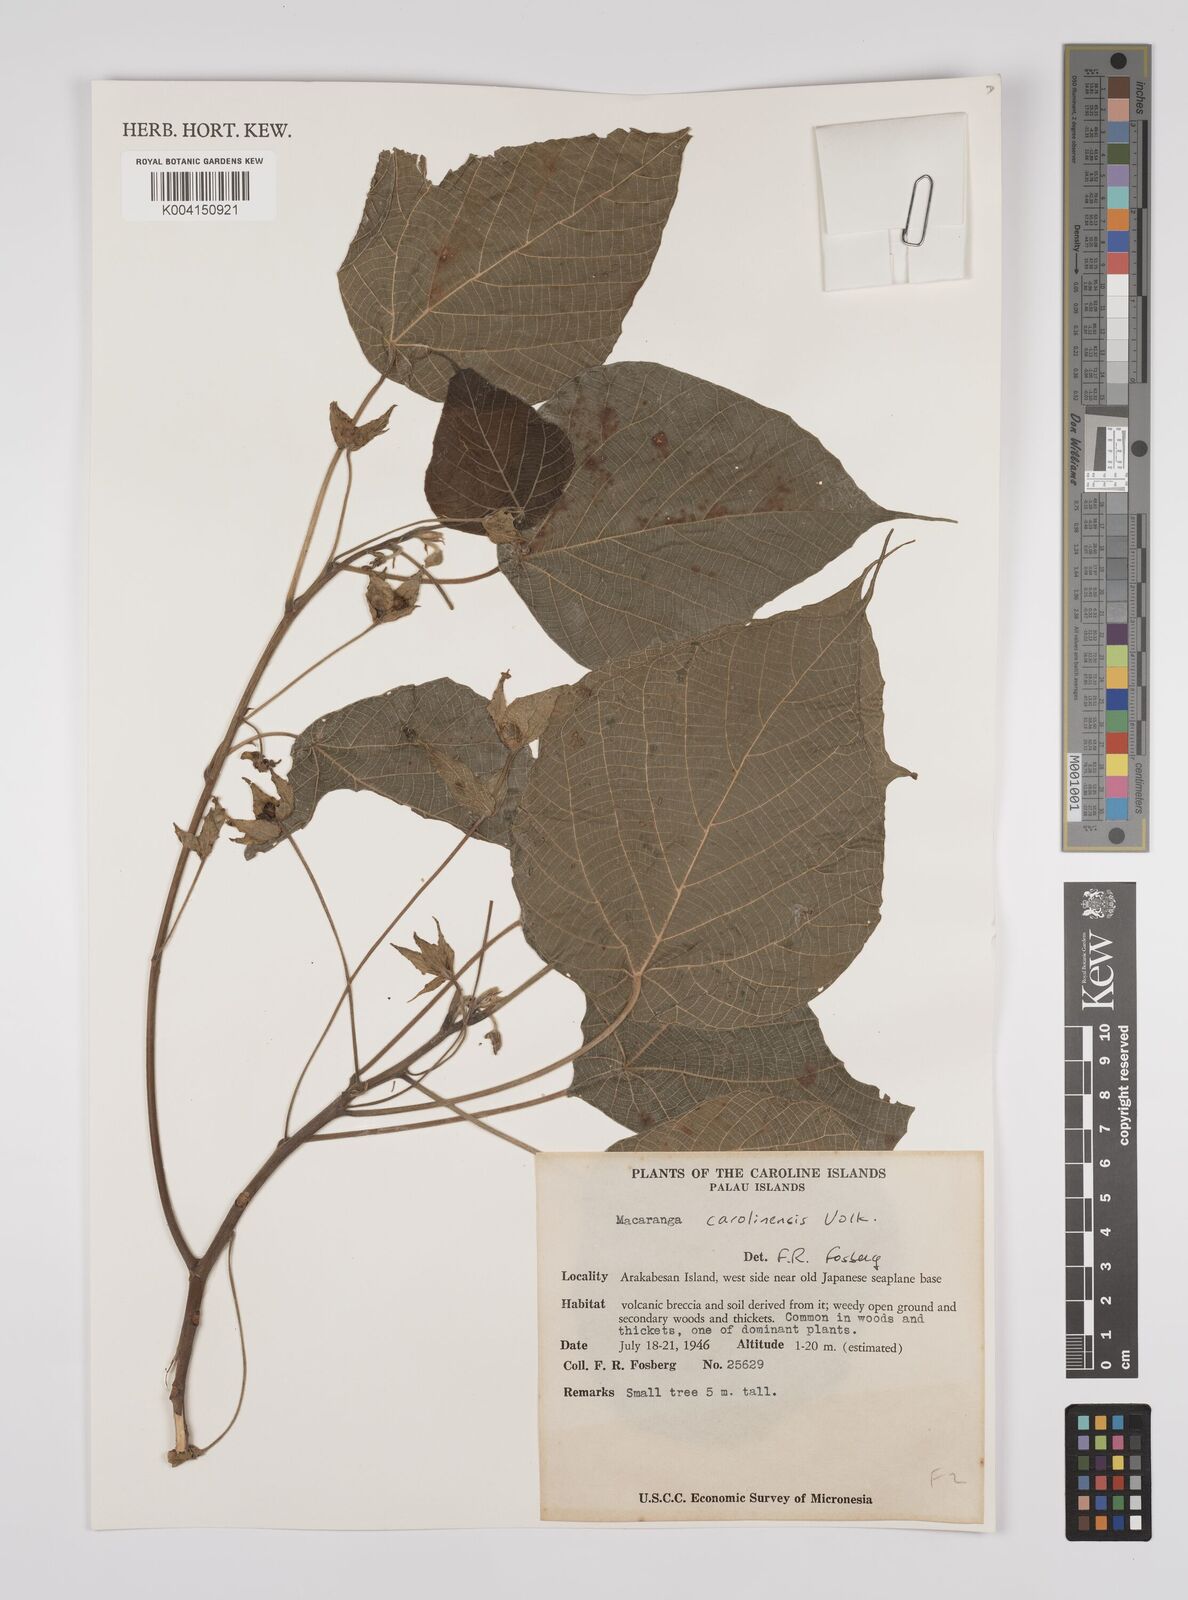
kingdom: Plantae
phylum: Tracheophyta
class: Magnoliopsida
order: Malpighiales
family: Euphorbiaceae
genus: Macaranga
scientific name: Macaranga carolinensis
